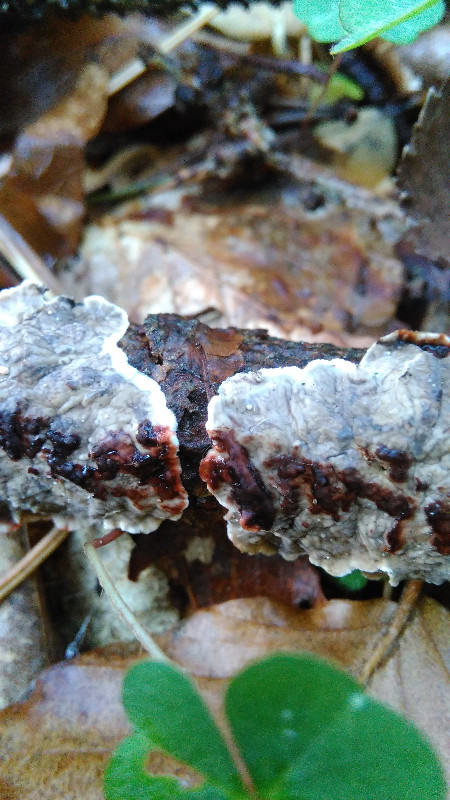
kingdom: Fungi
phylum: Basidiomycota
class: Agaricomycetes
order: Russulales
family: Stereaceae
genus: Stereum
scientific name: Stereum sanguinolentum
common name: blødende lædersvamp
